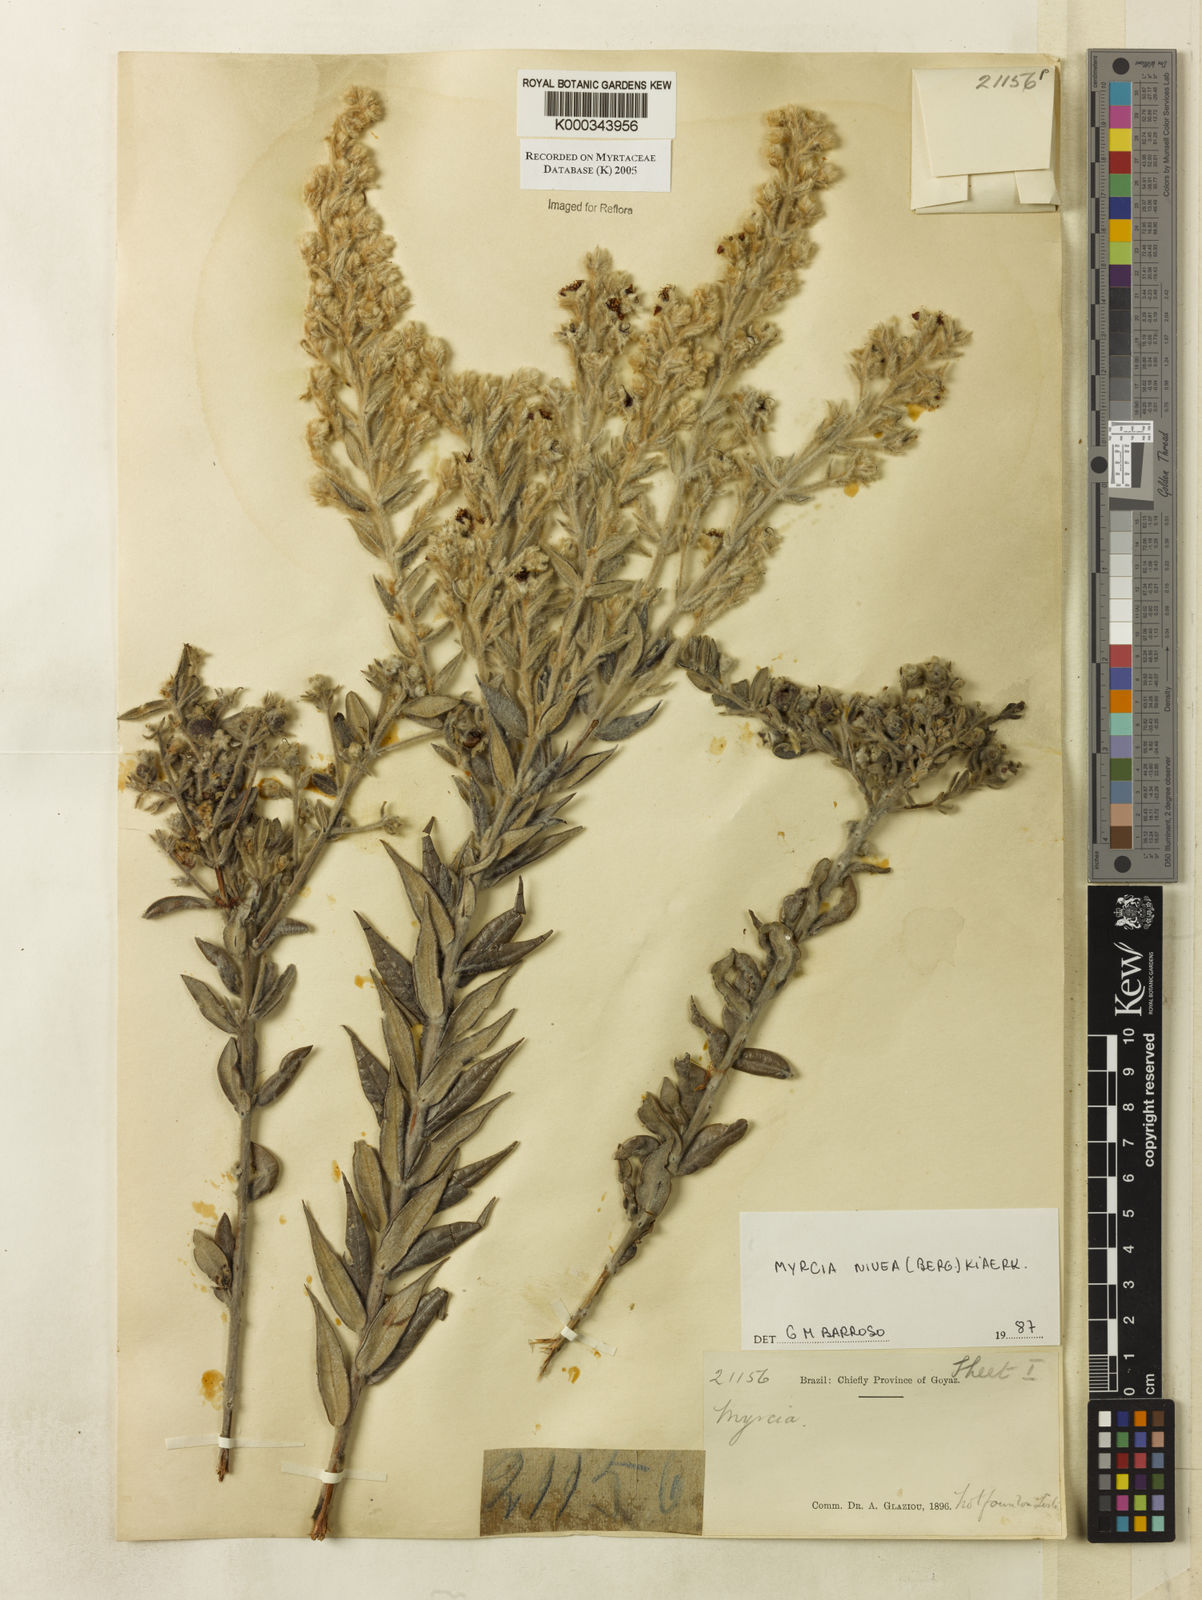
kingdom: Plantae
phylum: Tracheophyta
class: Magnoliopsida
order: Myrtales
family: Myrtaceae
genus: Myrcia
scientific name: Myrcia nivea
